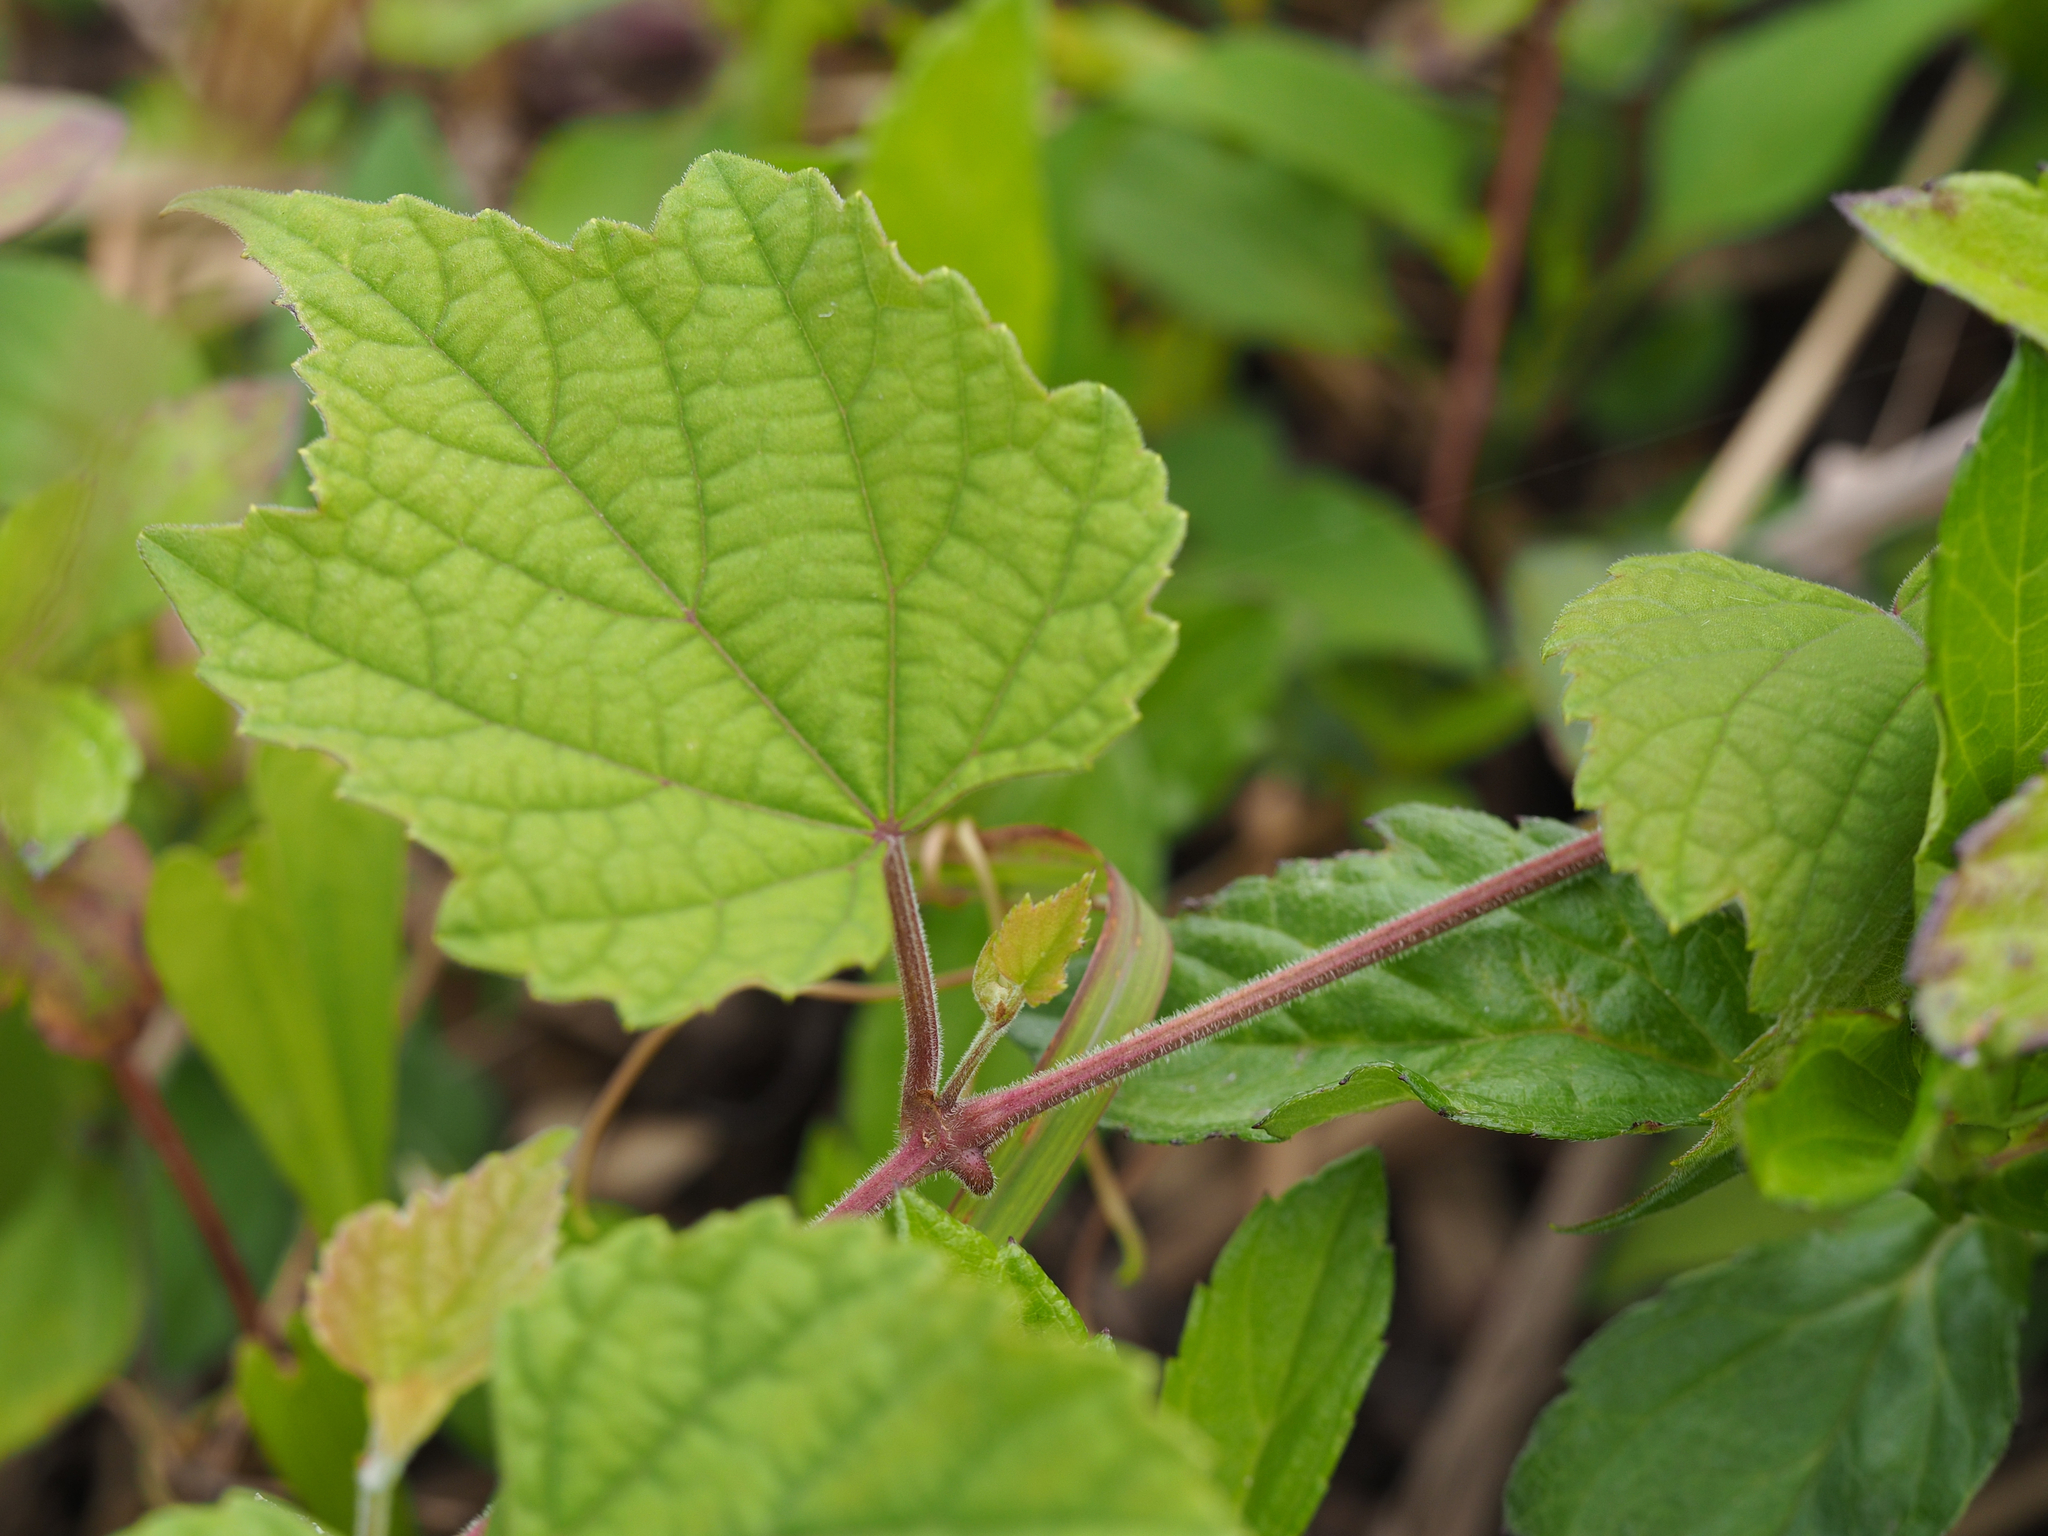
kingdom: Plantae
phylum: Tracheophyta
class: Magnoliopsida
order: Vitales
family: Vitaceae
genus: Ampelopsis
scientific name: Ampelopsis glandulosa
